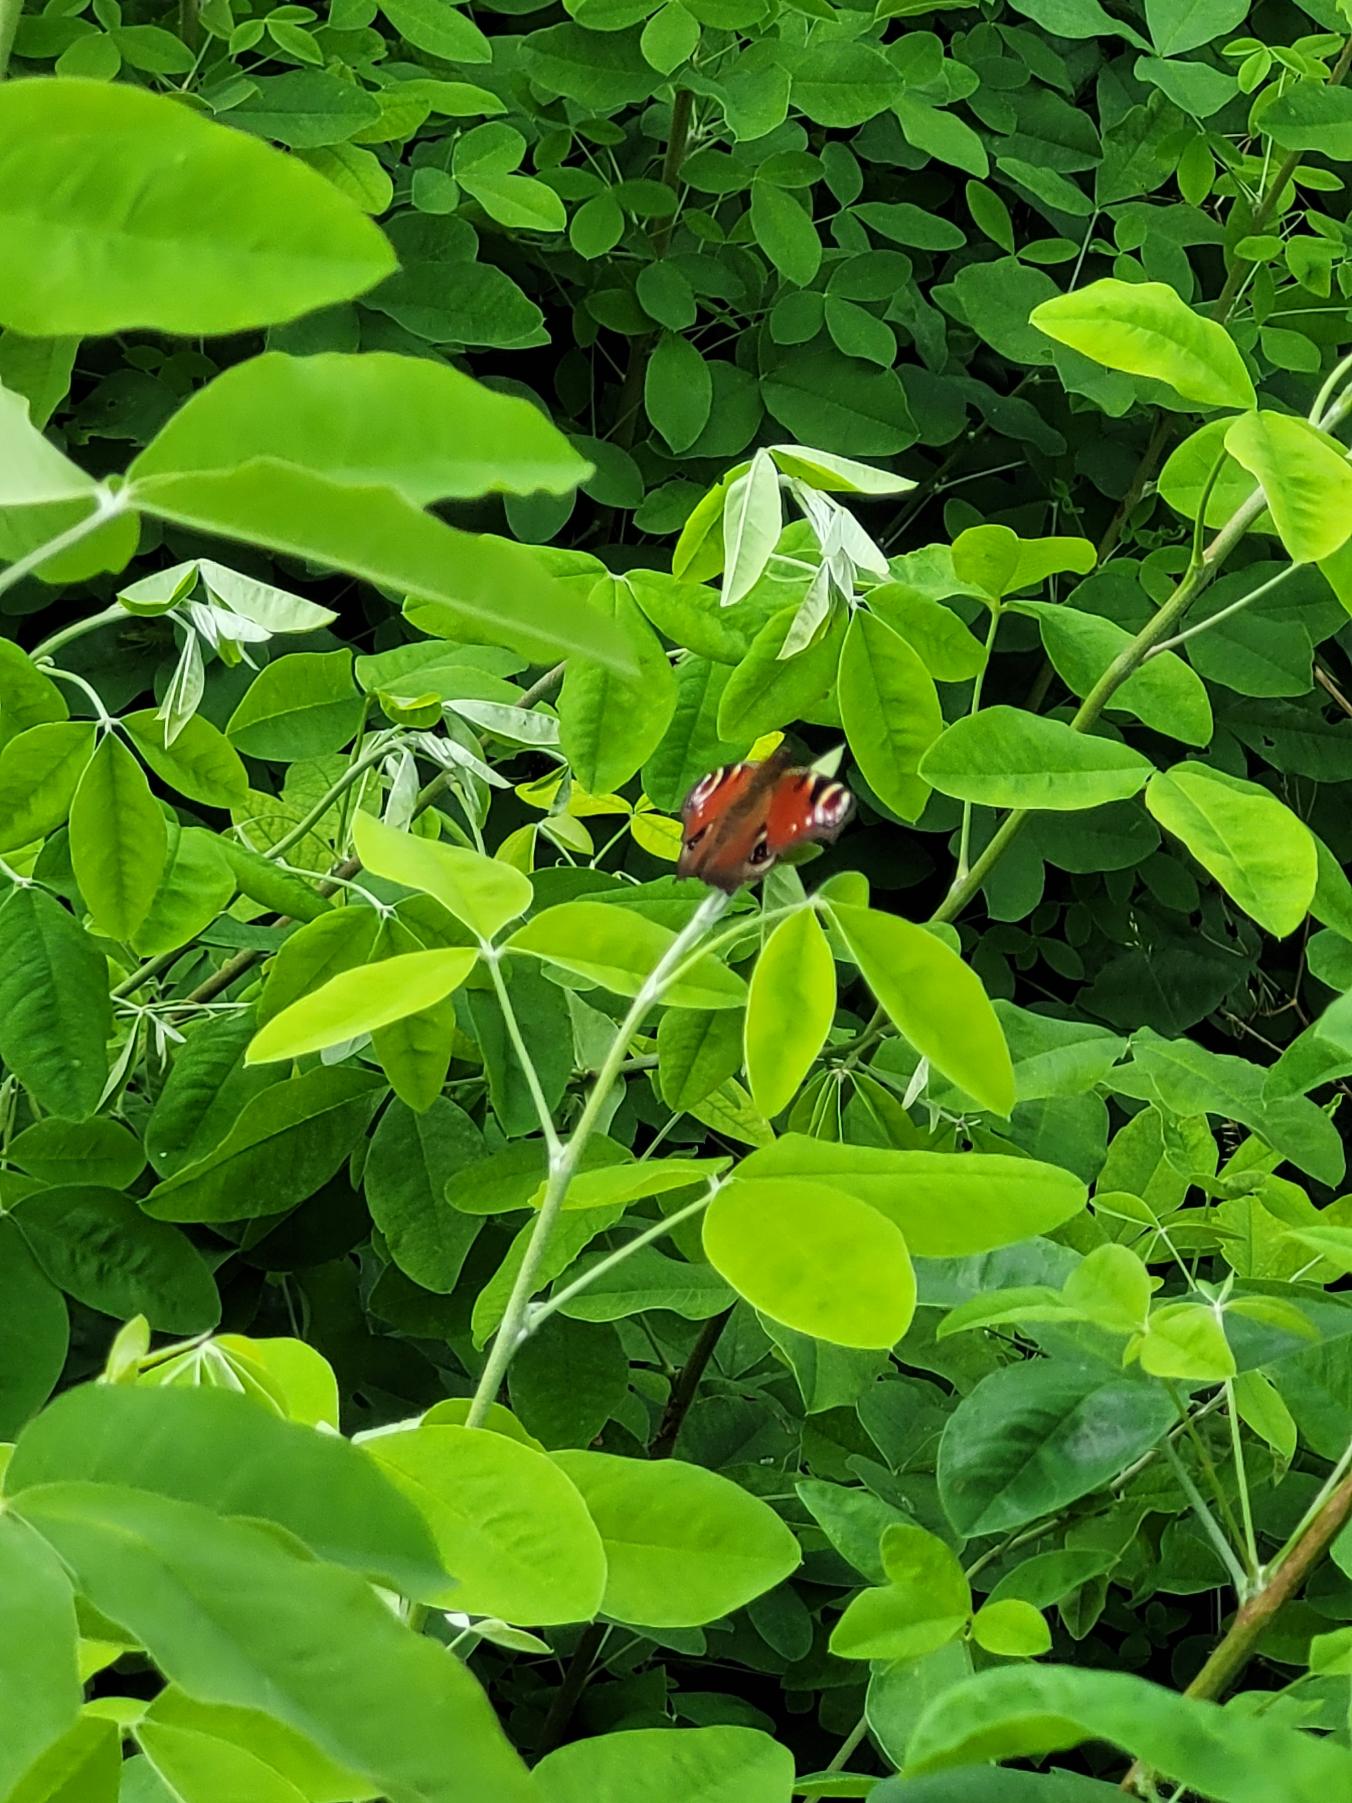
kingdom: Animalia
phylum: Arthropoda
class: Insecta
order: Lepidoptera
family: Nymphalidae
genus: Aglais
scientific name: Aglais io
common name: Dagpåfugleøje
